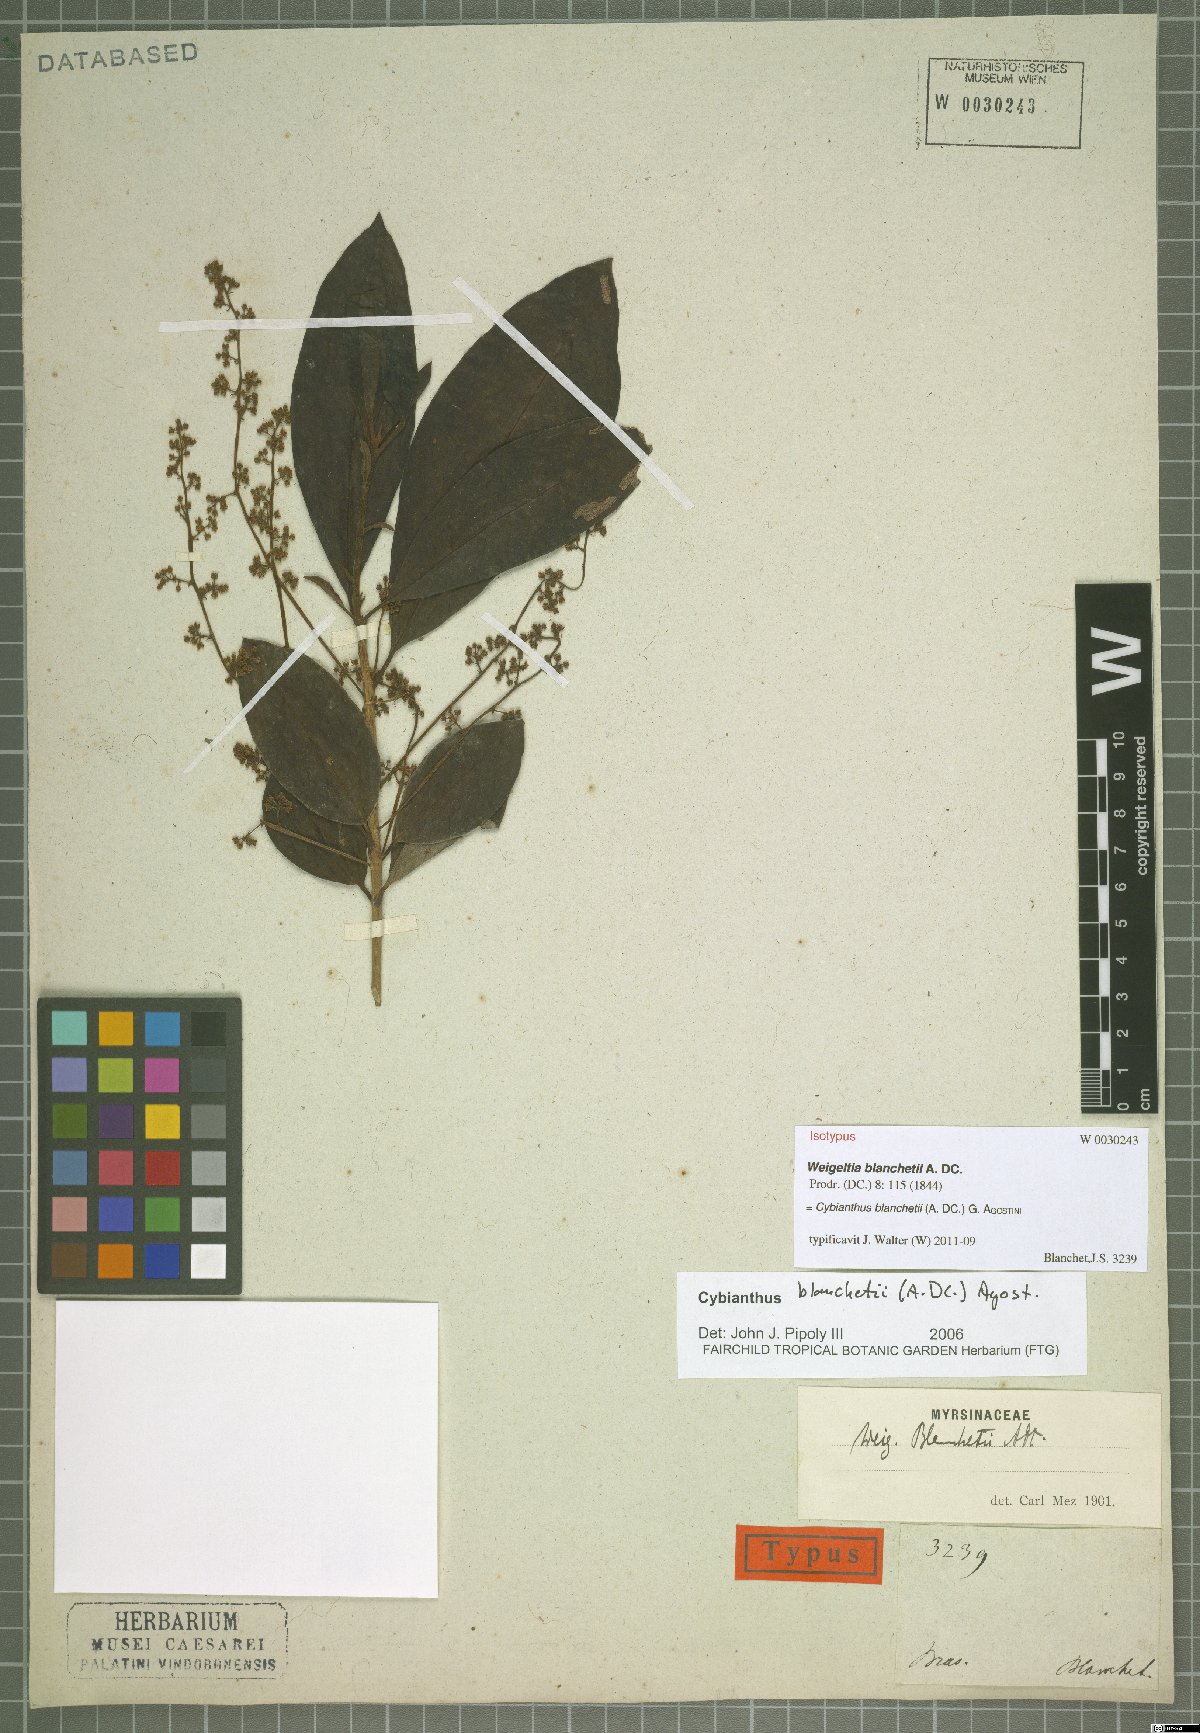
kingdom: Plantae
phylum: Tracheophyta
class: Magnoliopsida
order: Ericales
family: Primulaceae
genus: Cybianthus
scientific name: Cybianthus blanchetii
